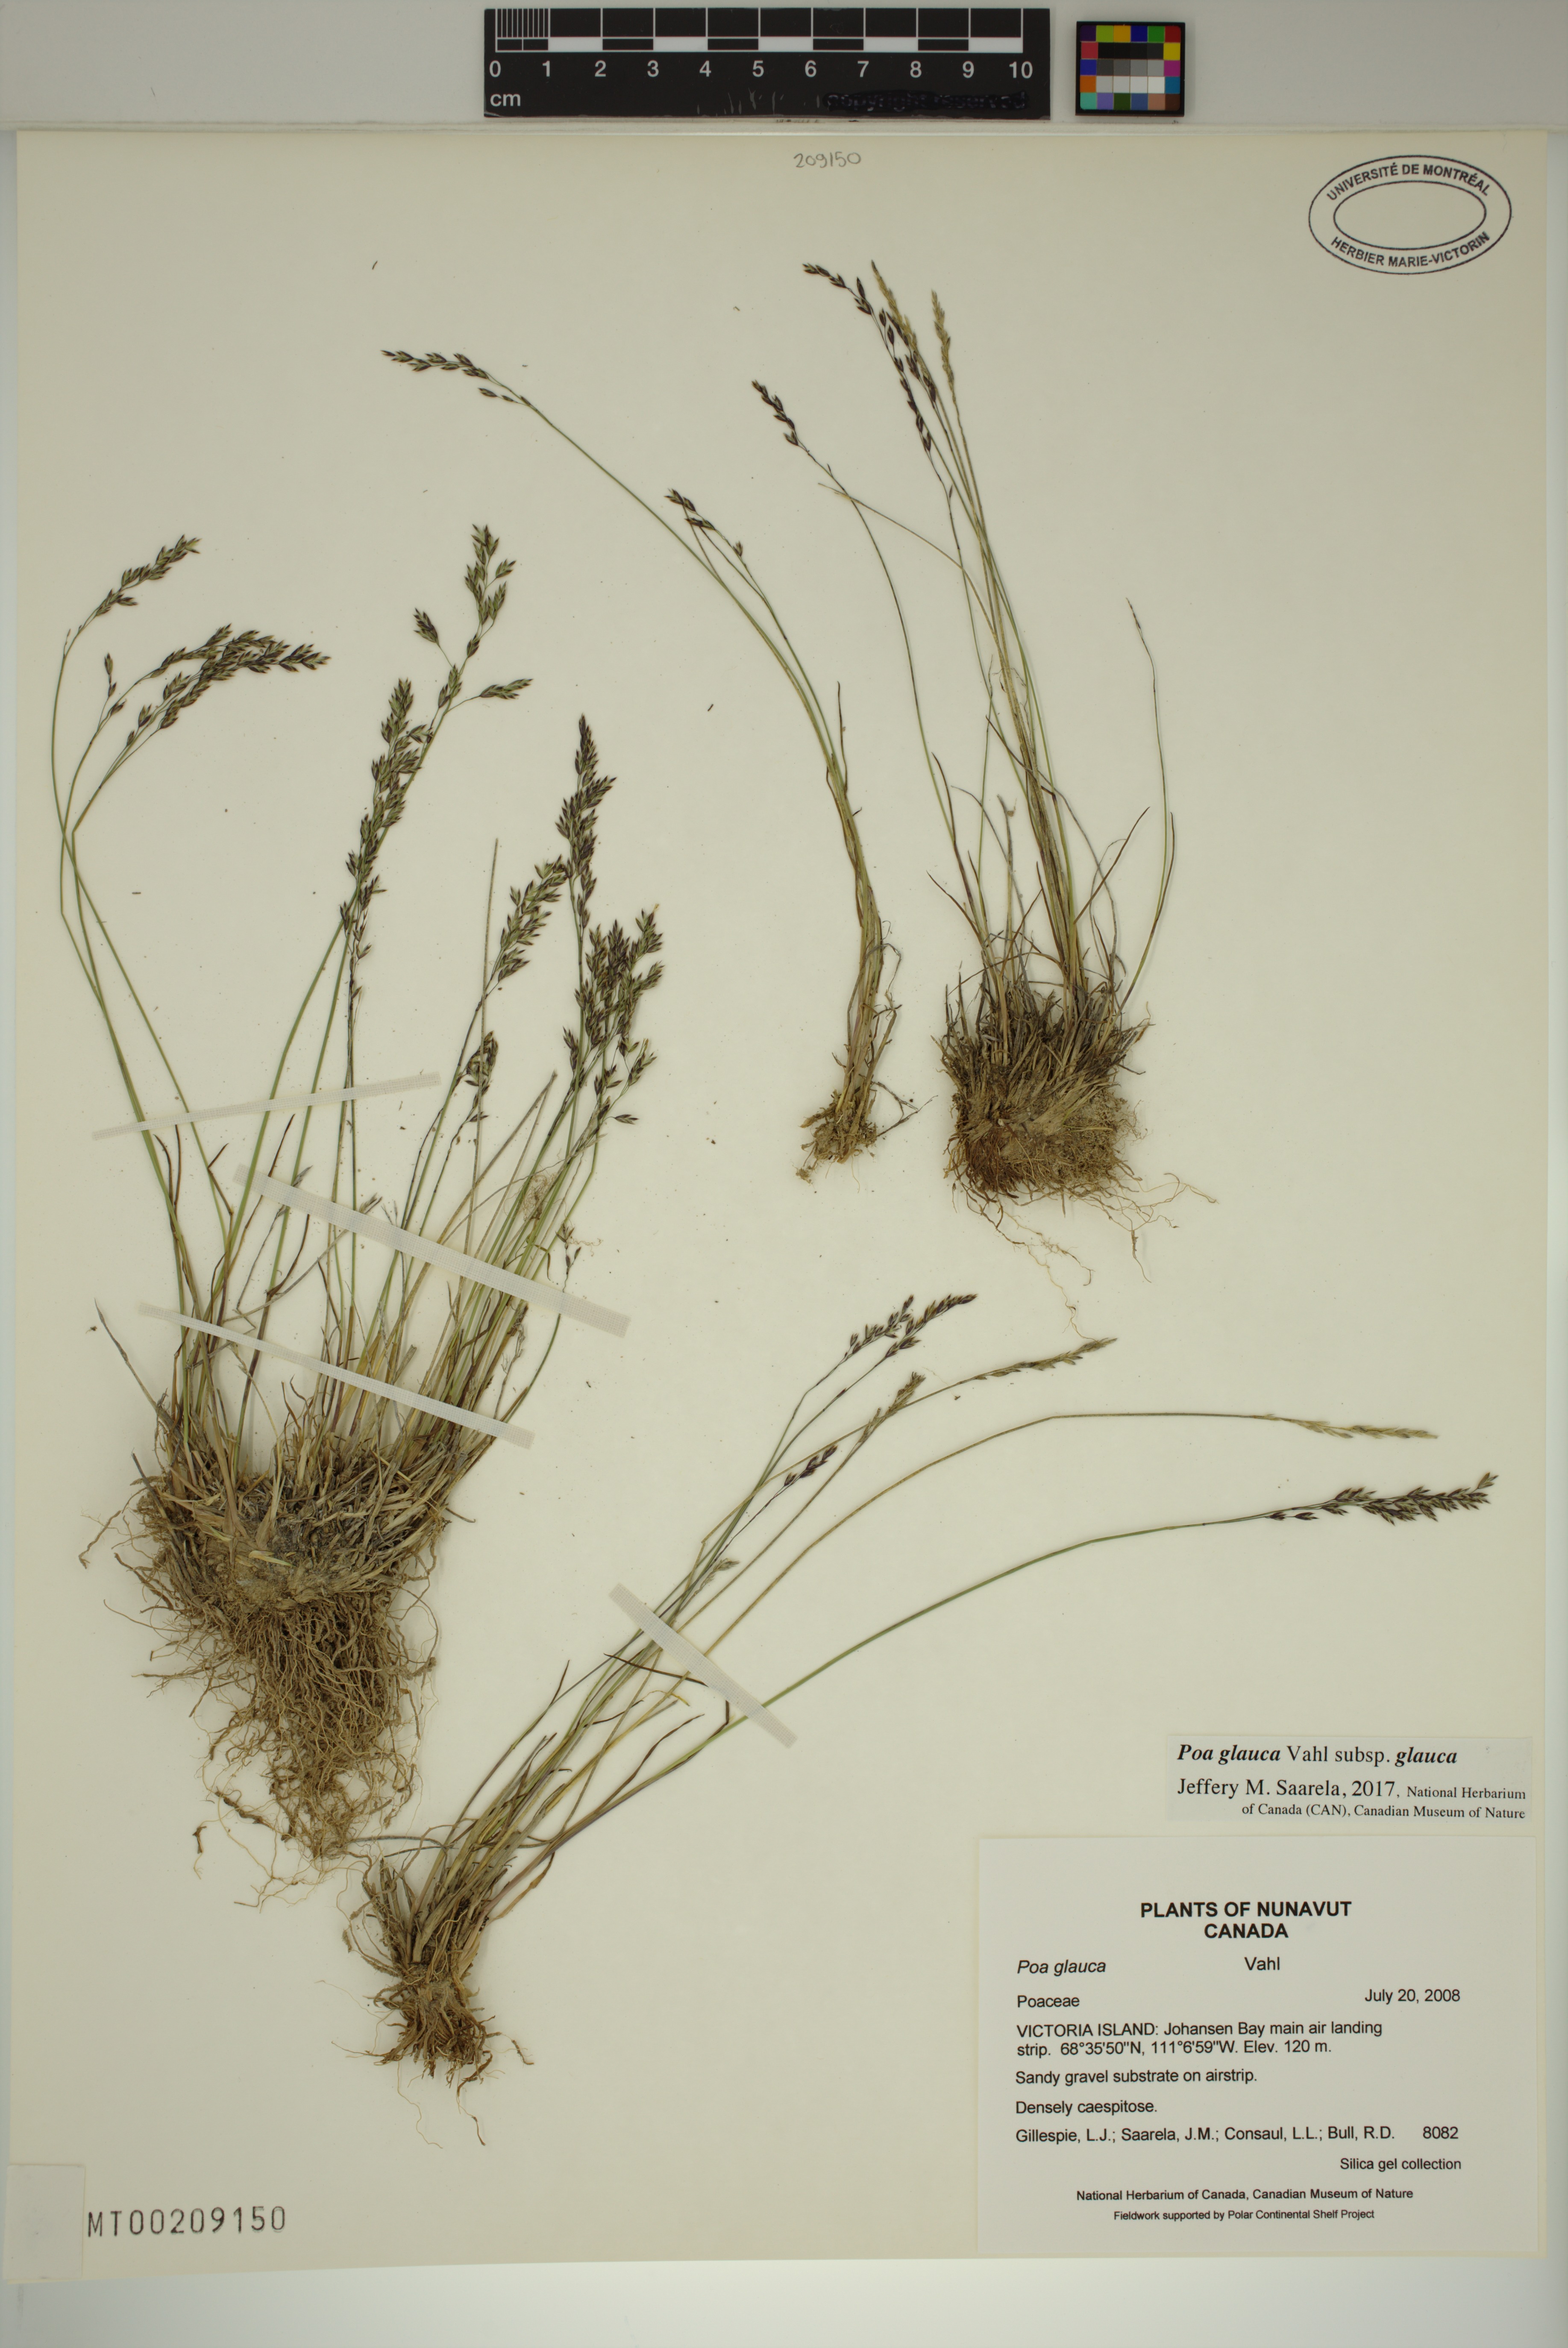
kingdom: Plantae
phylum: Tracheophyta
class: Liliopsida
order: Poales
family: Poaceae
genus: Poa
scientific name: Poa glauca
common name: Glaucous bluegrass
